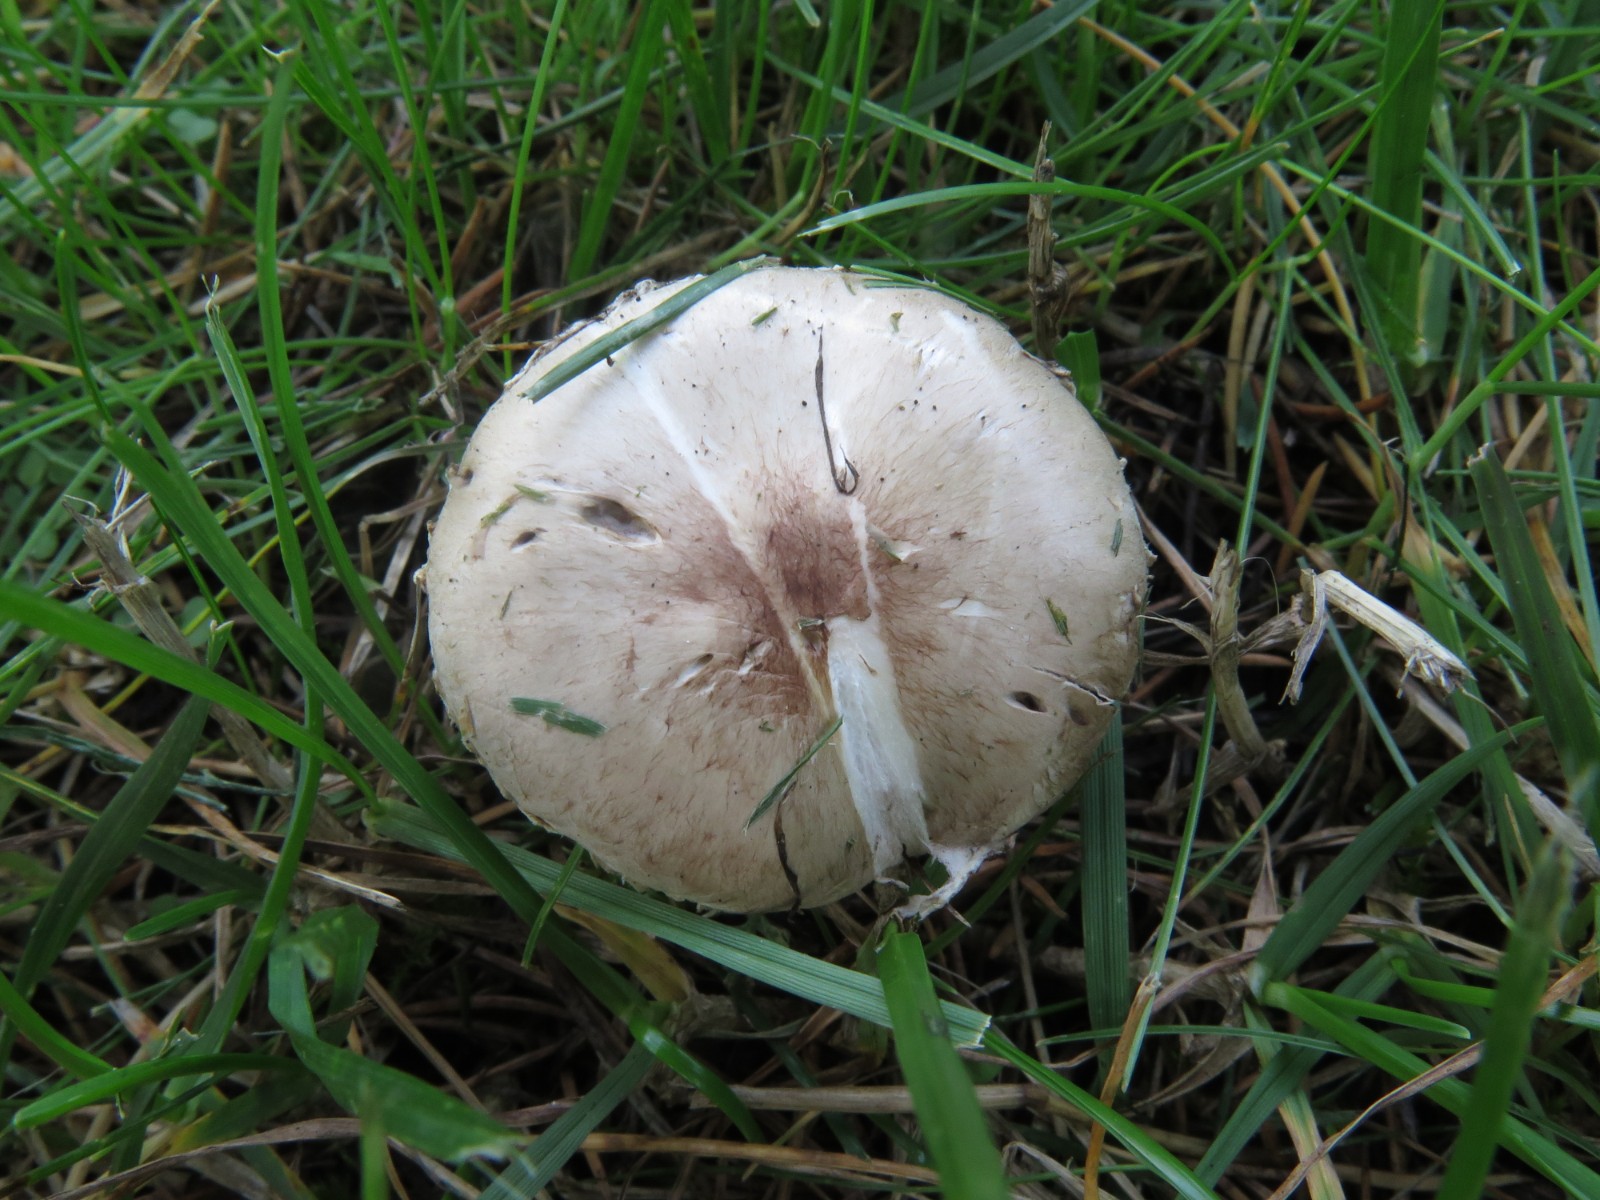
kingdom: Fungi
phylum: Basidiomycota
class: Agaricomycetes
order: Agaricales
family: Agaricaceae
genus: Agaricus
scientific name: Agaricus dulcidulus
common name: blegrød champignon
